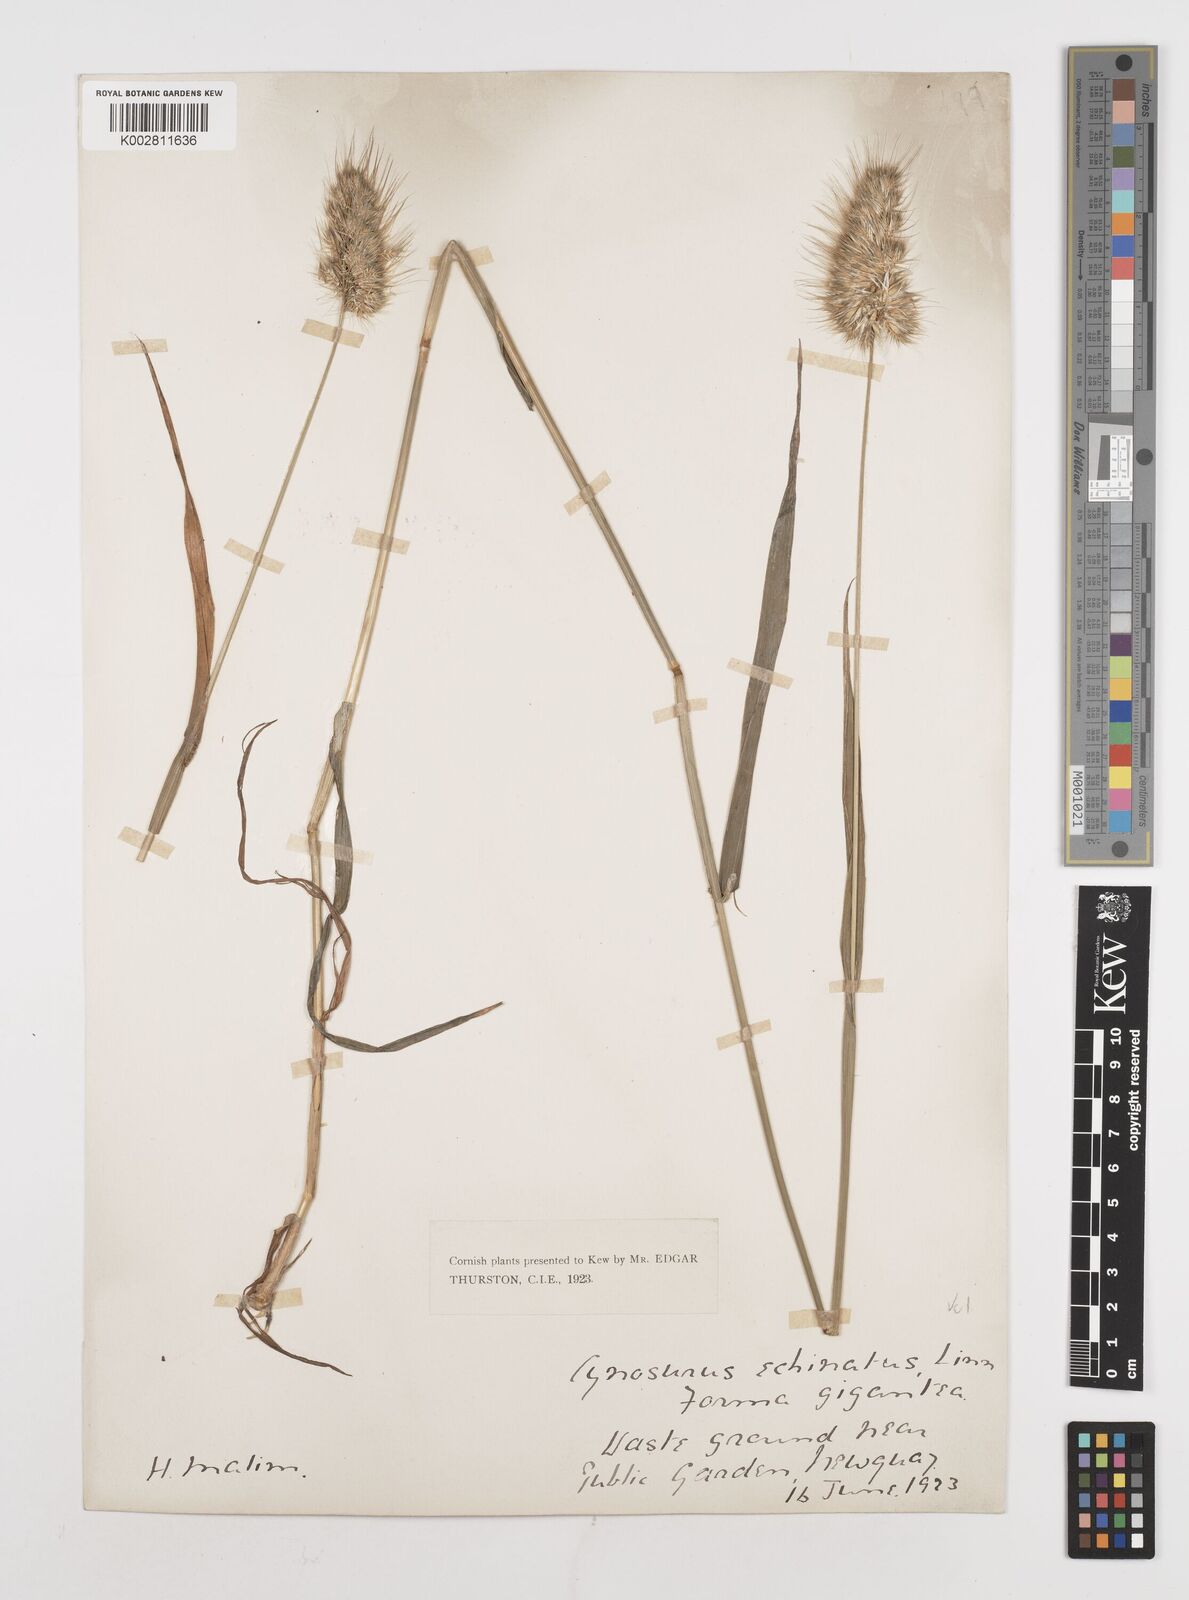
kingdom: Plantae
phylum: Tracheophyta
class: Liliopsida
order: Poales
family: Poaceae
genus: Cynosurus
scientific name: Cynosurus echinatus
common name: Rough dog's-tail
